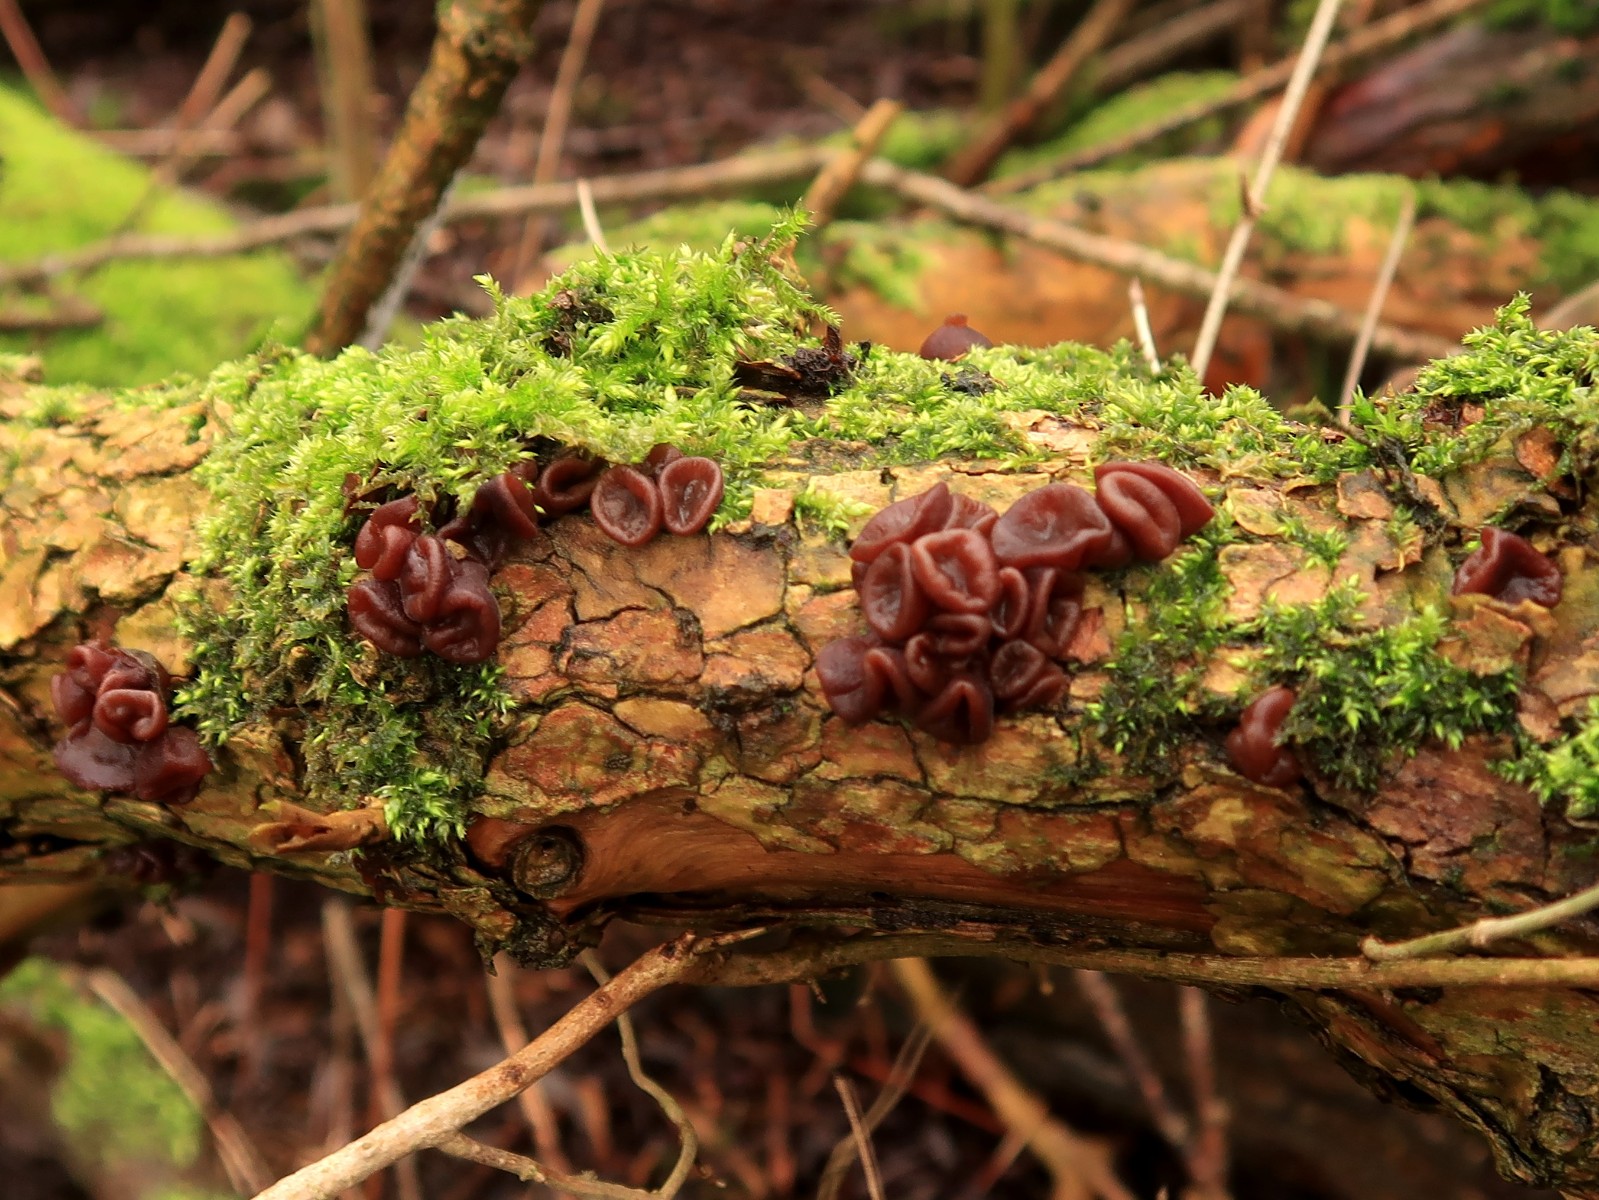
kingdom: Fungi
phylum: Basidiomycota
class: Agaricomycetes
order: Auriculariales
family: Auriculariaceae
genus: Auricularia
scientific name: Auricularia auricula-judae
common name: almindelig judasøre
